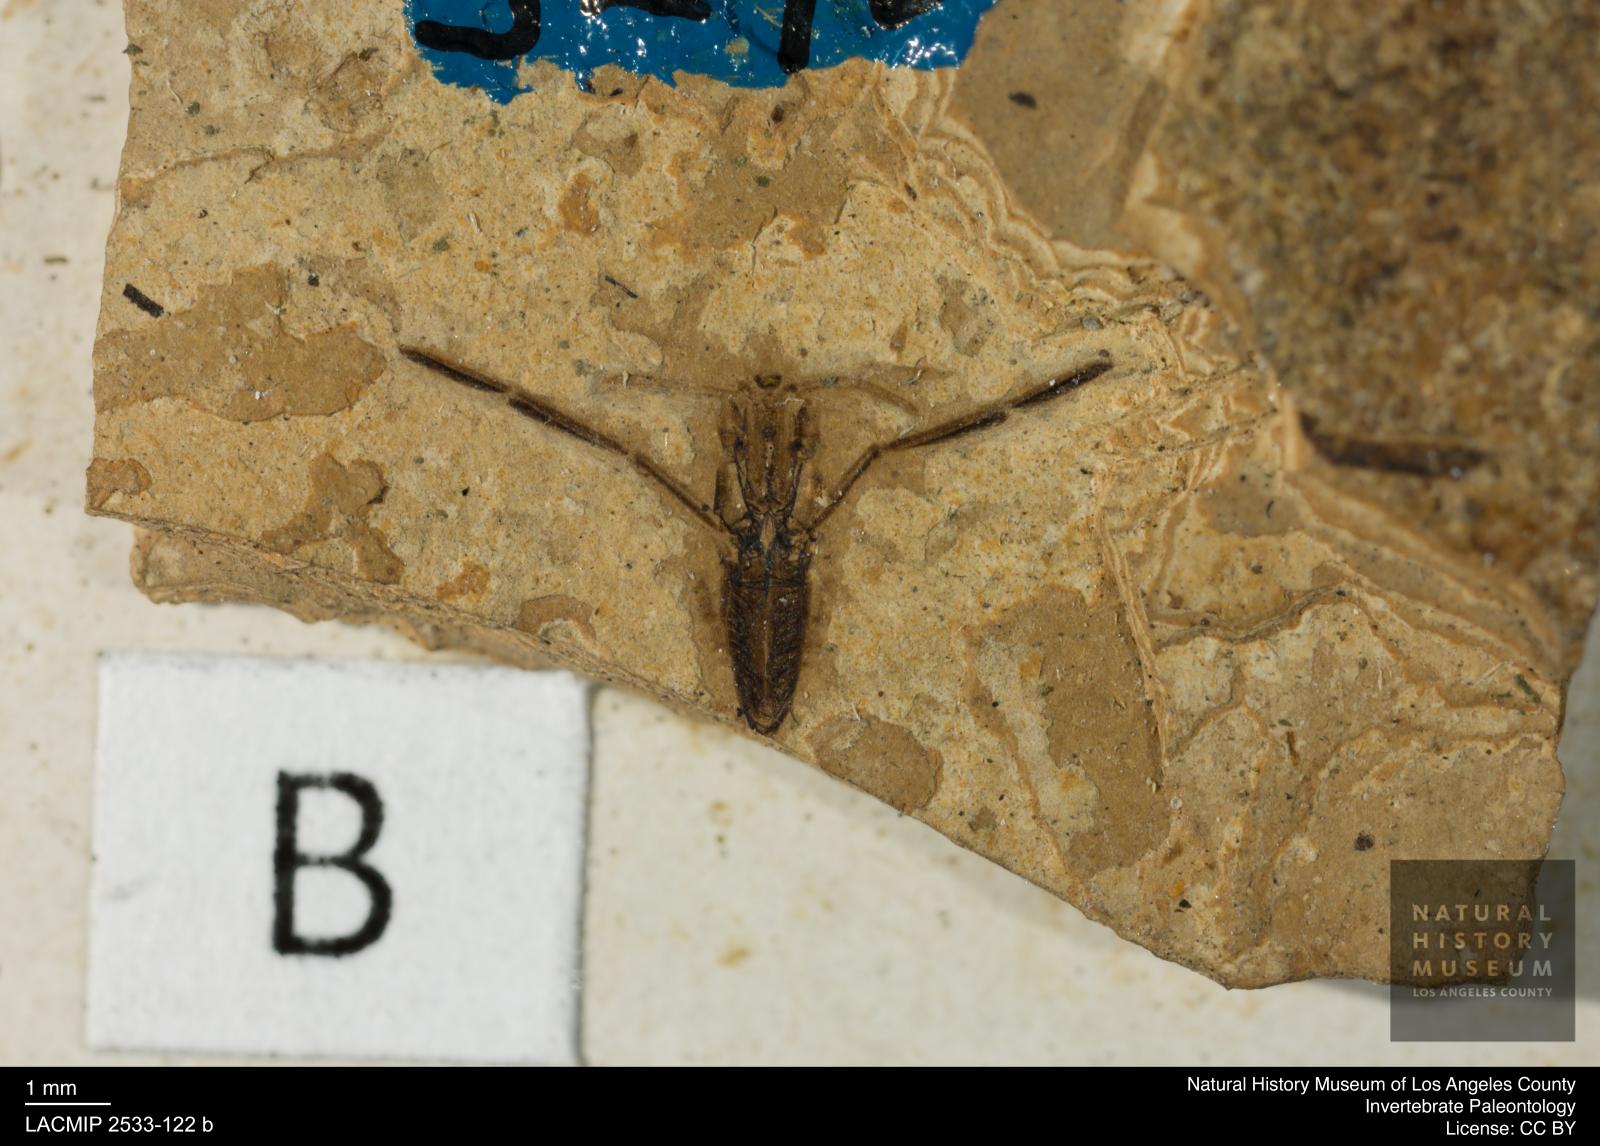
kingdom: Animalia
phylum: Arthropoda
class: Insecta
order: Hemiptera
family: Notonectidae
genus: Anisops
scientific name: Anisops Notonecta heydeni
